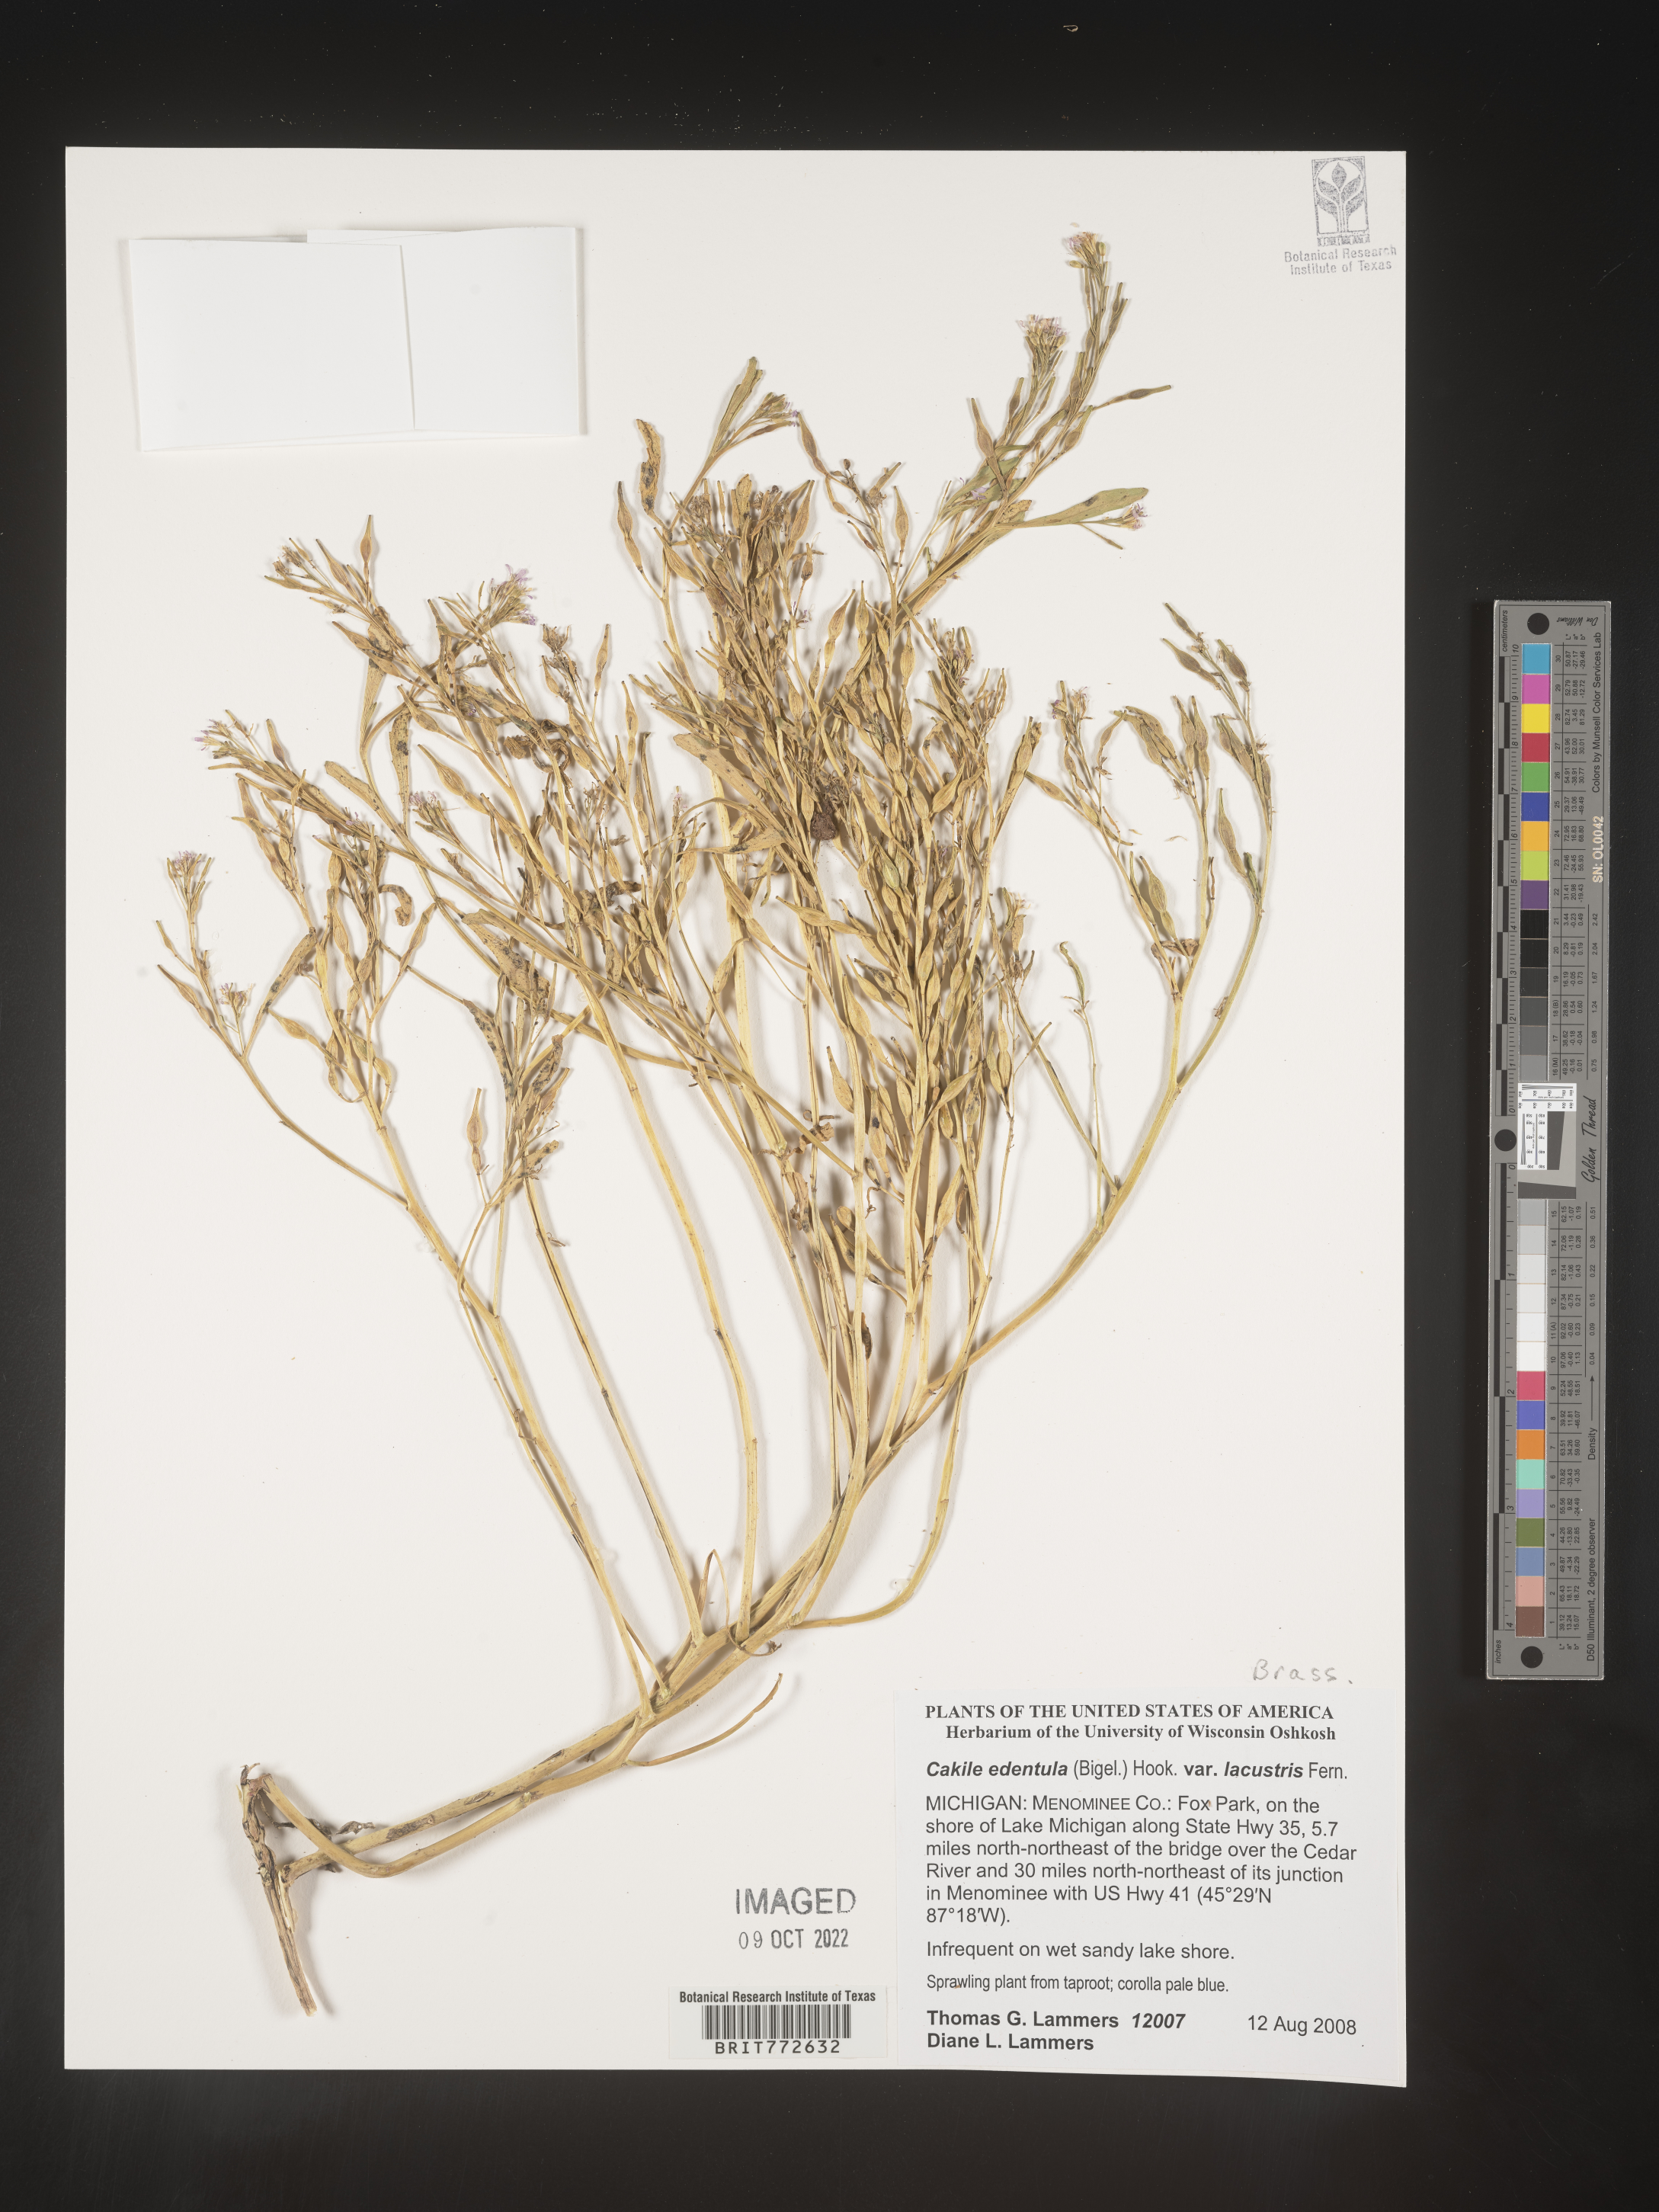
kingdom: Plantae
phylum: Tracheophyta
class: Magnoliopsida
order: Brassicales
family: Brassicaceae
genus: Cakile
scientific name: Cakile edentula
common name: American sea rocket
